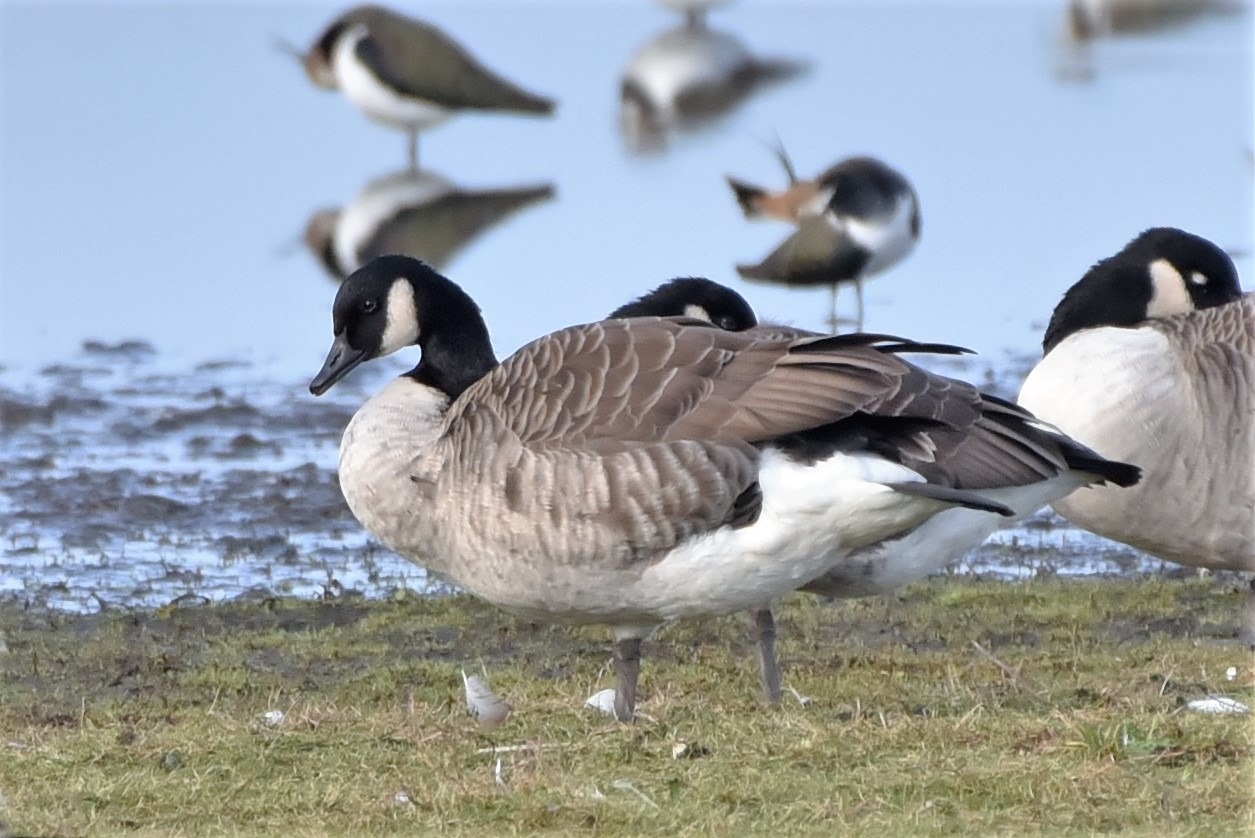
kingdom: Animalia
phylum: Chordata
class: Aves
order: Anseriformes
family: Anatidae
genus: Branta
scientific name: Branta canadensis
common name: Canadagås
